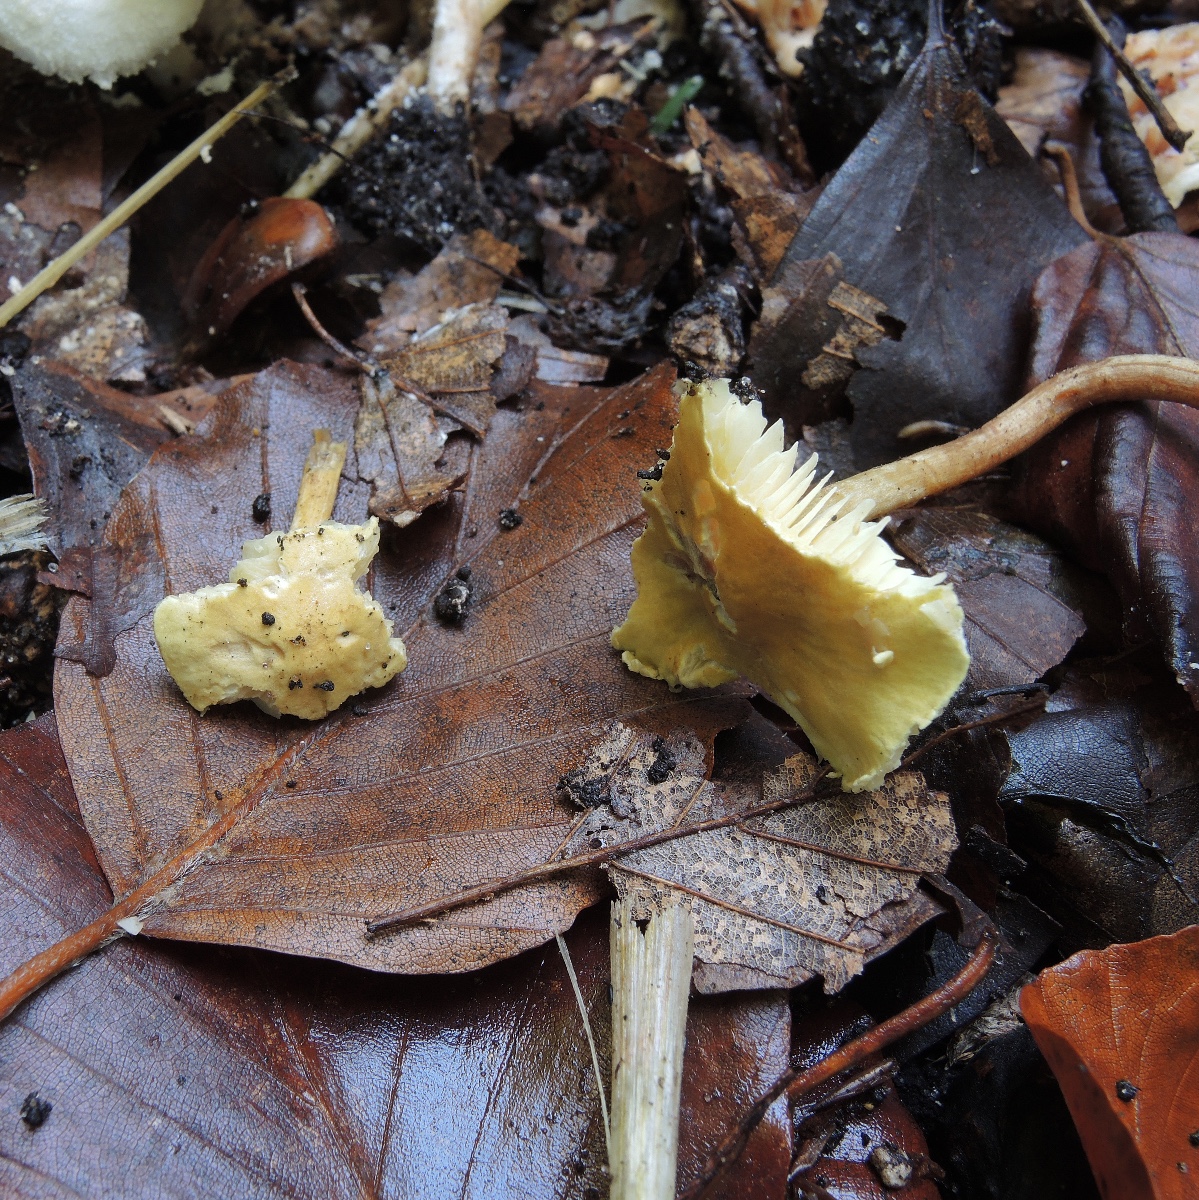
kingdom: Fungi
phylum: Basidiomycota
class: Agaricomycetes
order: Agaricales
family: Agaricaceae
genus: Cystolepiota
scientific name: Cystolepiota icterina
